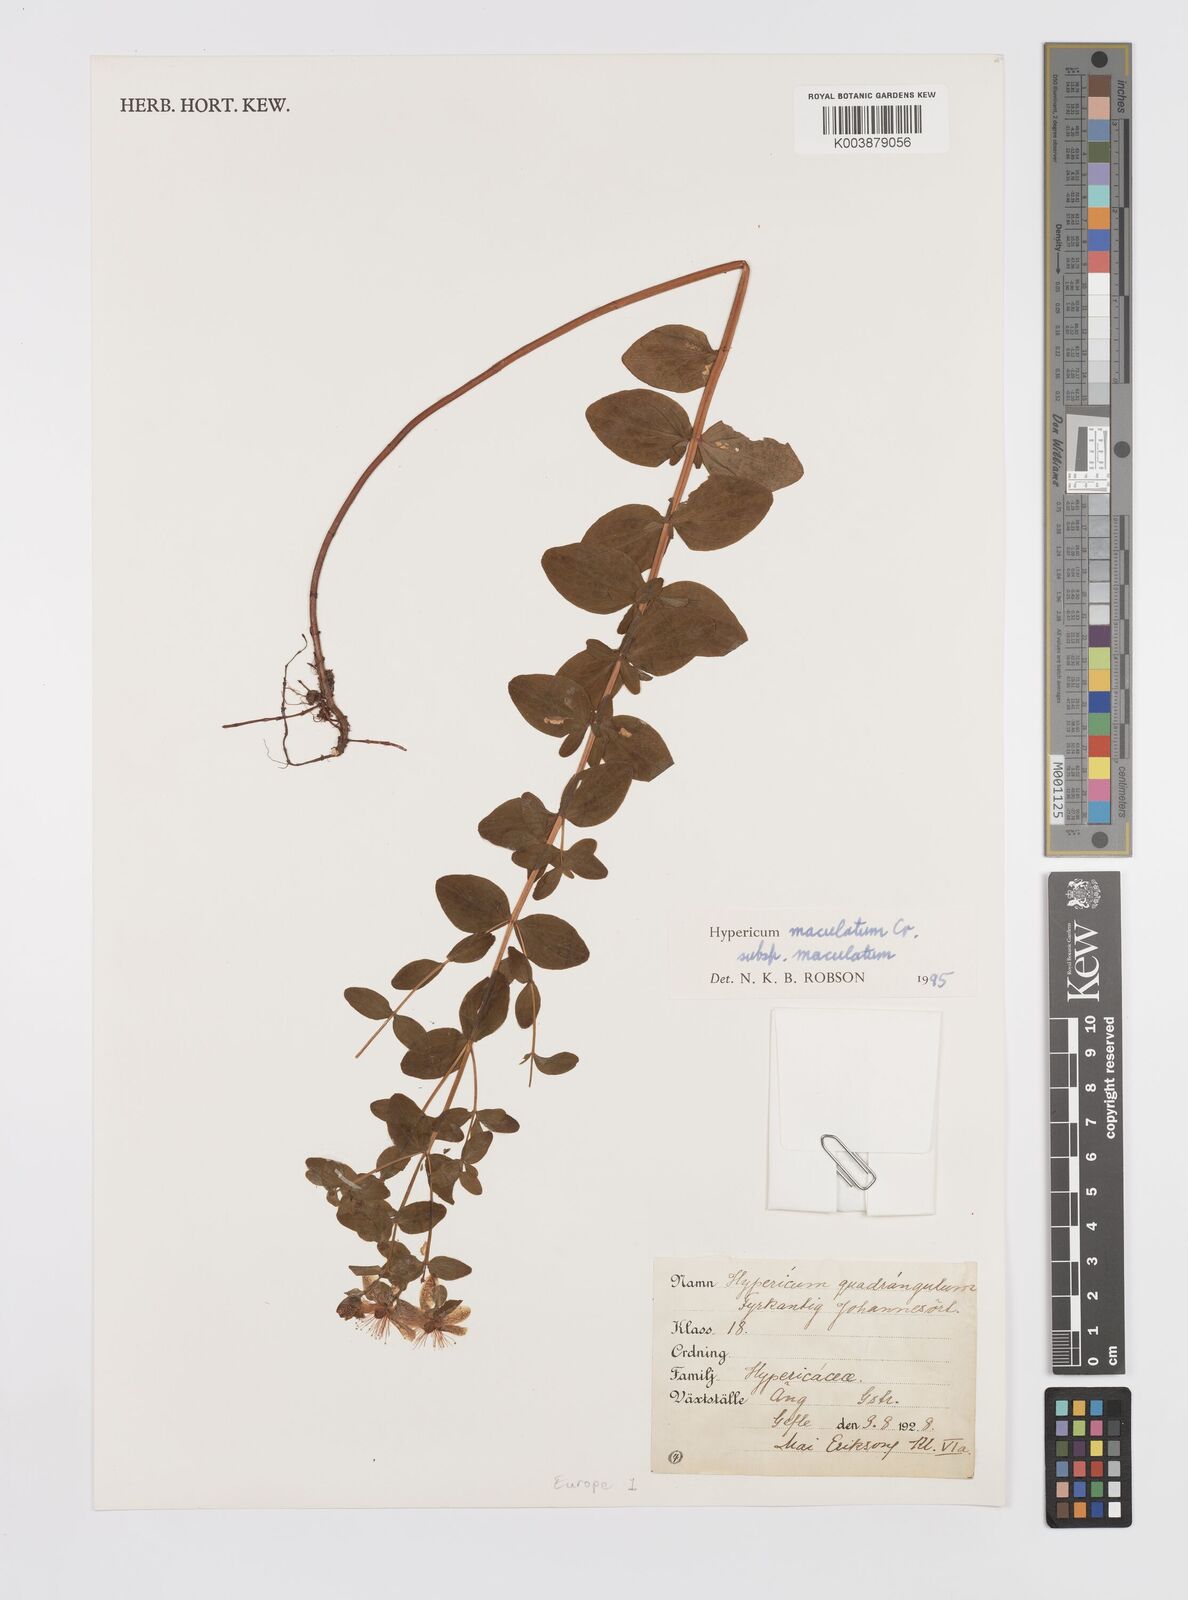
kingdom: Plantae
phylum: Tracheophyta
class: Magnoliopsida
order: Malpighiales
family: Hypericaceae
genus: Hypericum
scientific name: Hypericum maculatum
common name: Imperforate st. john's-wort
